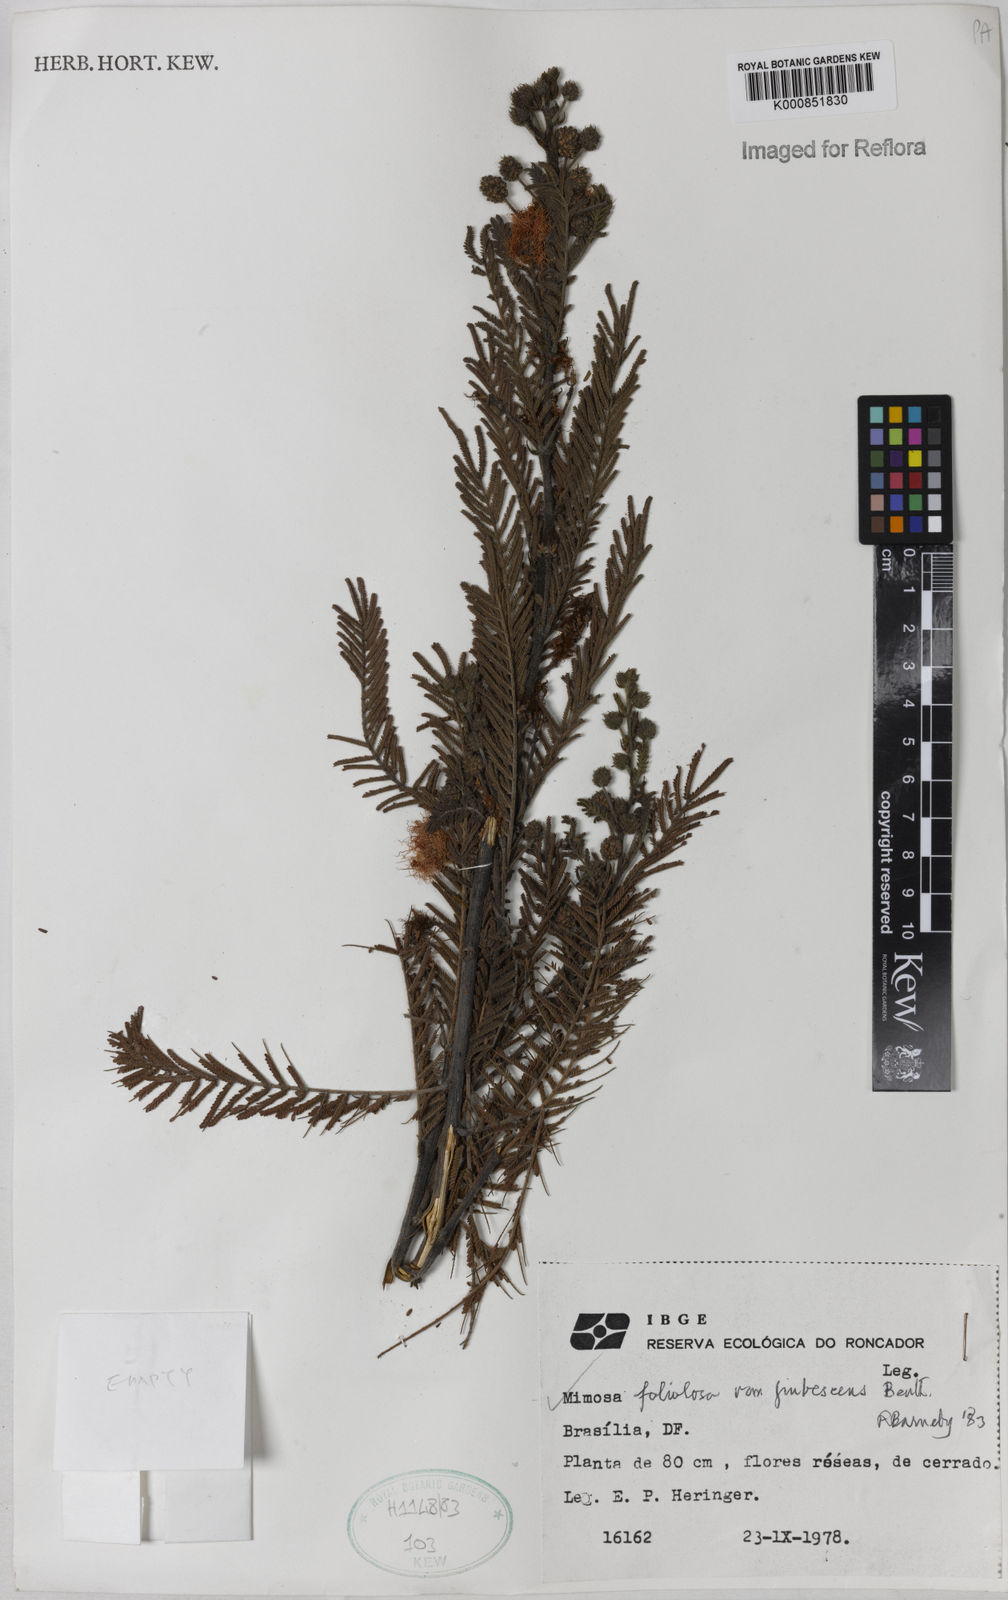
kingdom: Plantae
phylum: Tracheophyta
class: Magnoliopsida
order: Fabales
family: Fabaceae
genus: Mimosa
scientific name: Mimosa foliolosa
